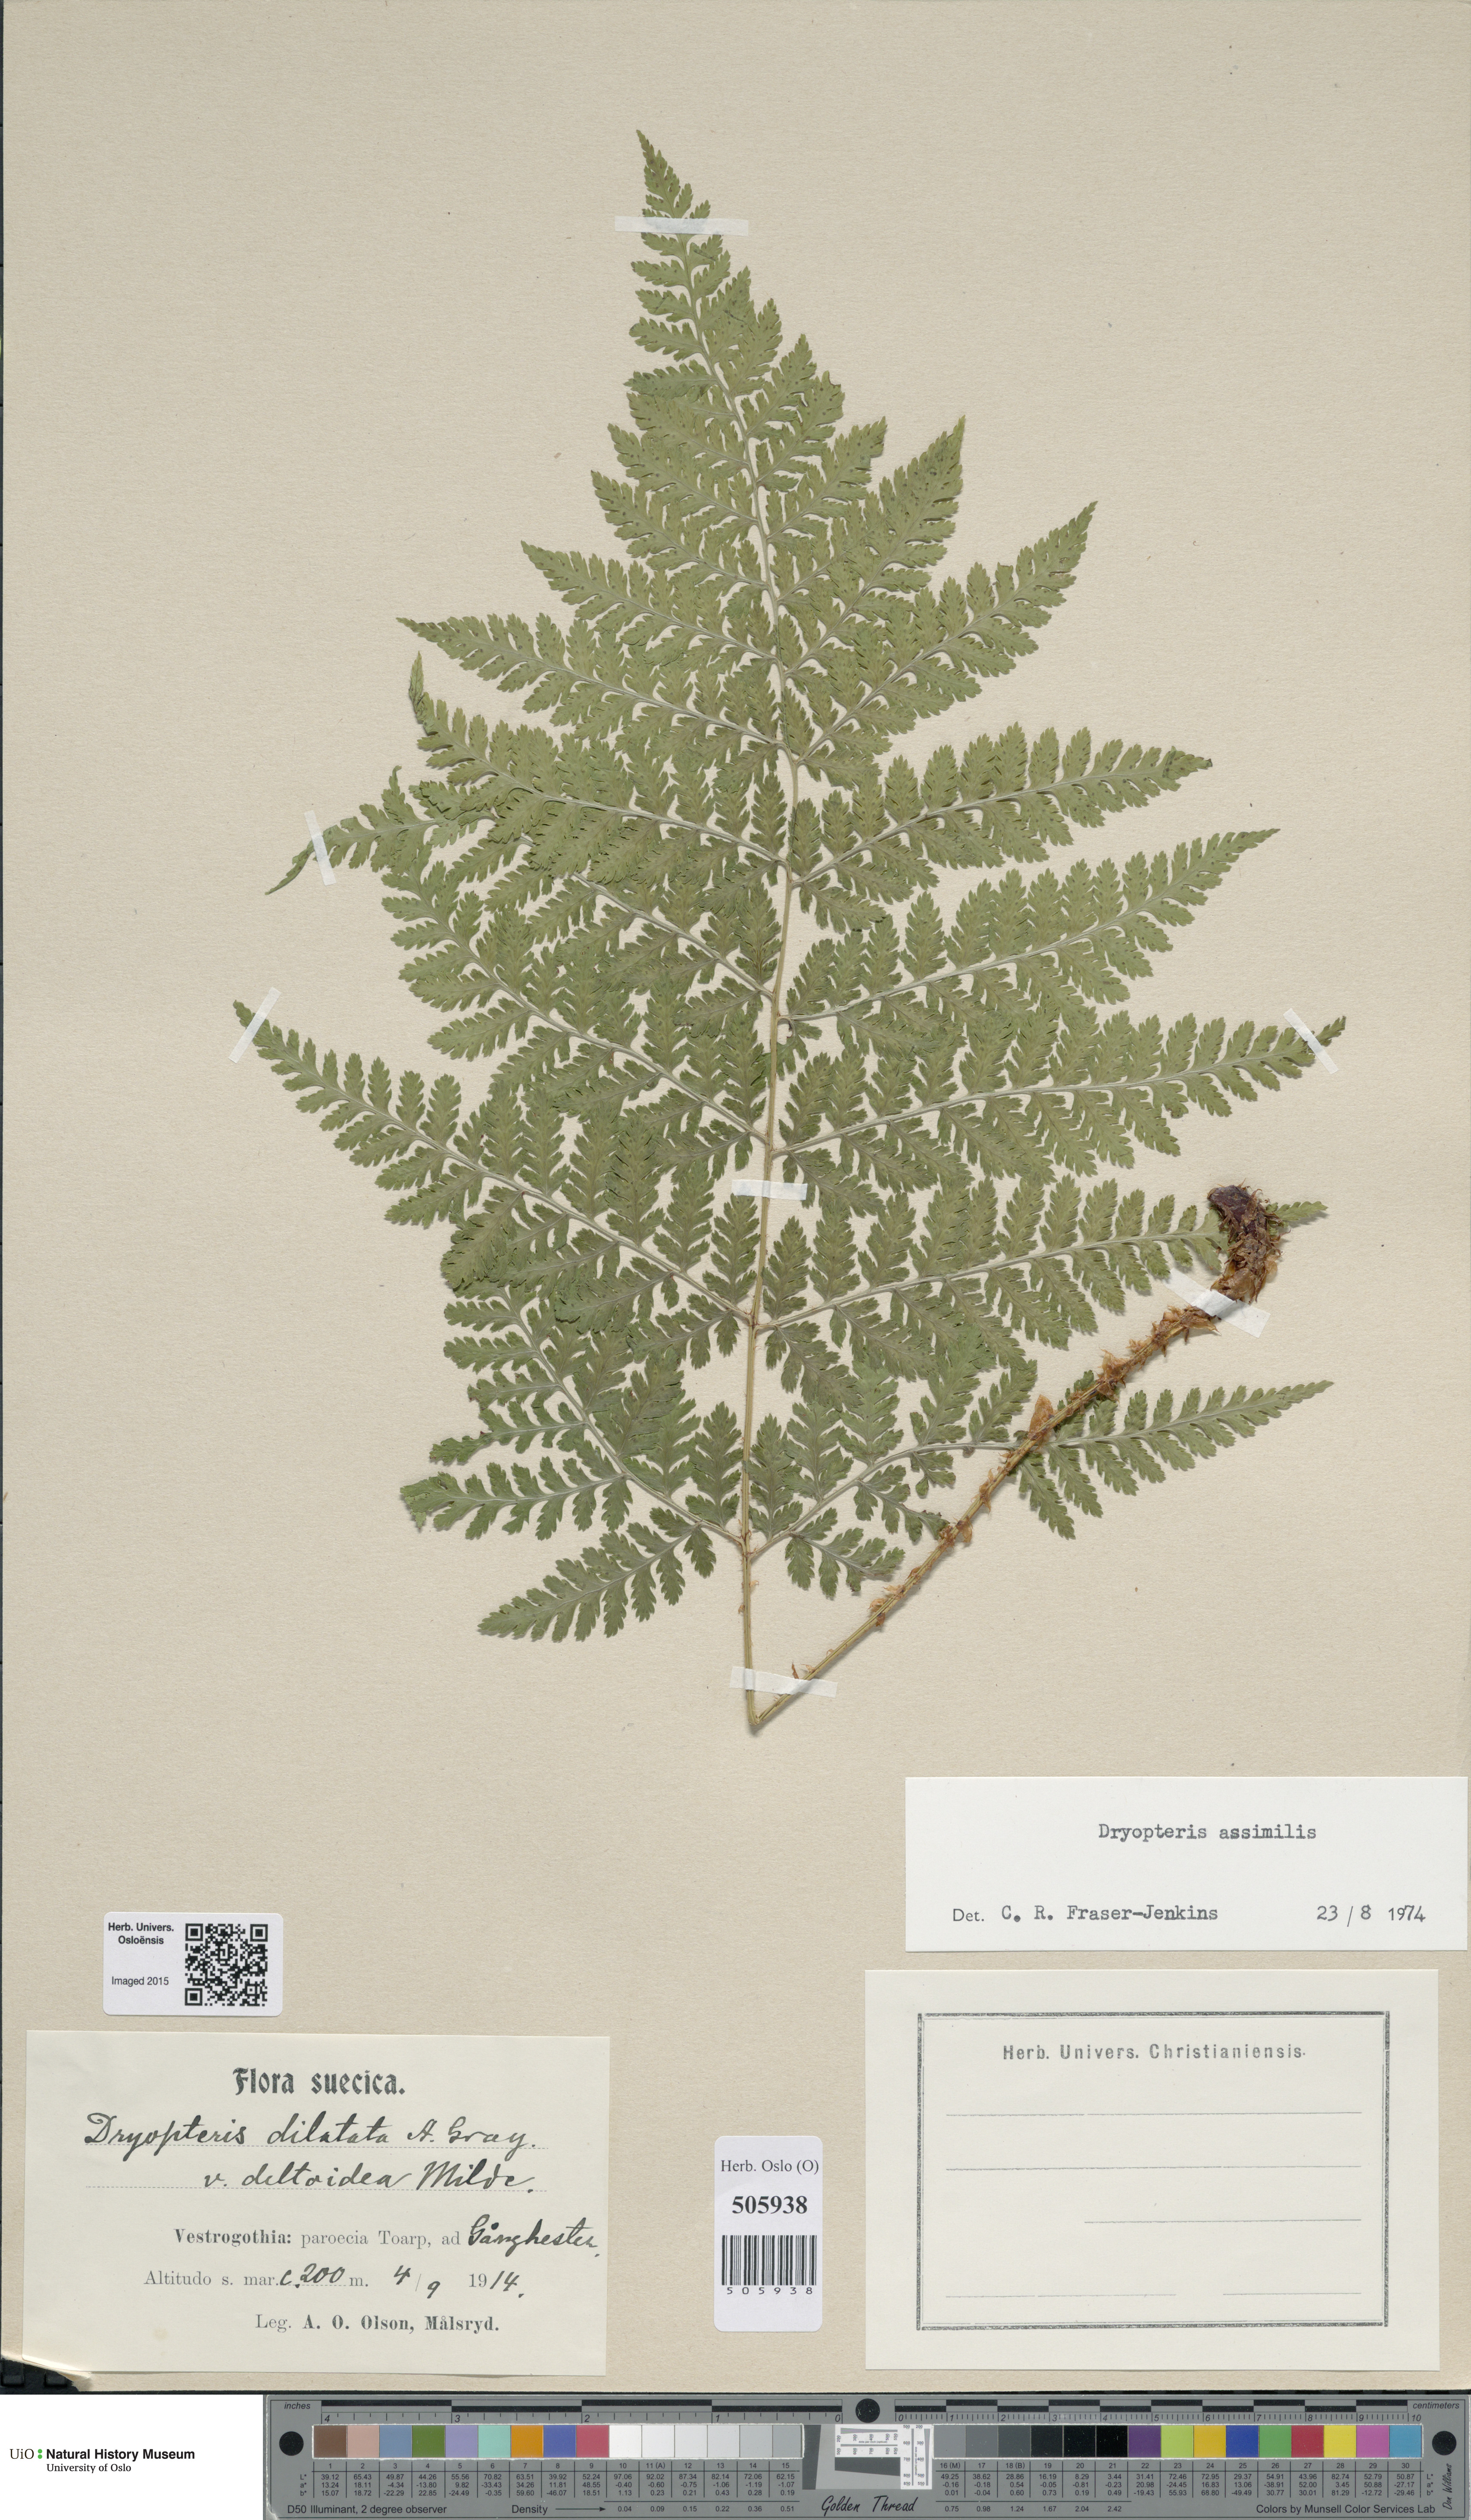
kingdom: Plantae
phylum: Tracheophyta
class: Polypodiopsida
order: Polypodiales
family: Dryopteridaceae
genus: Dryopteris
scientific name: Dryopteris expansa
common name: Northern buckler fern
